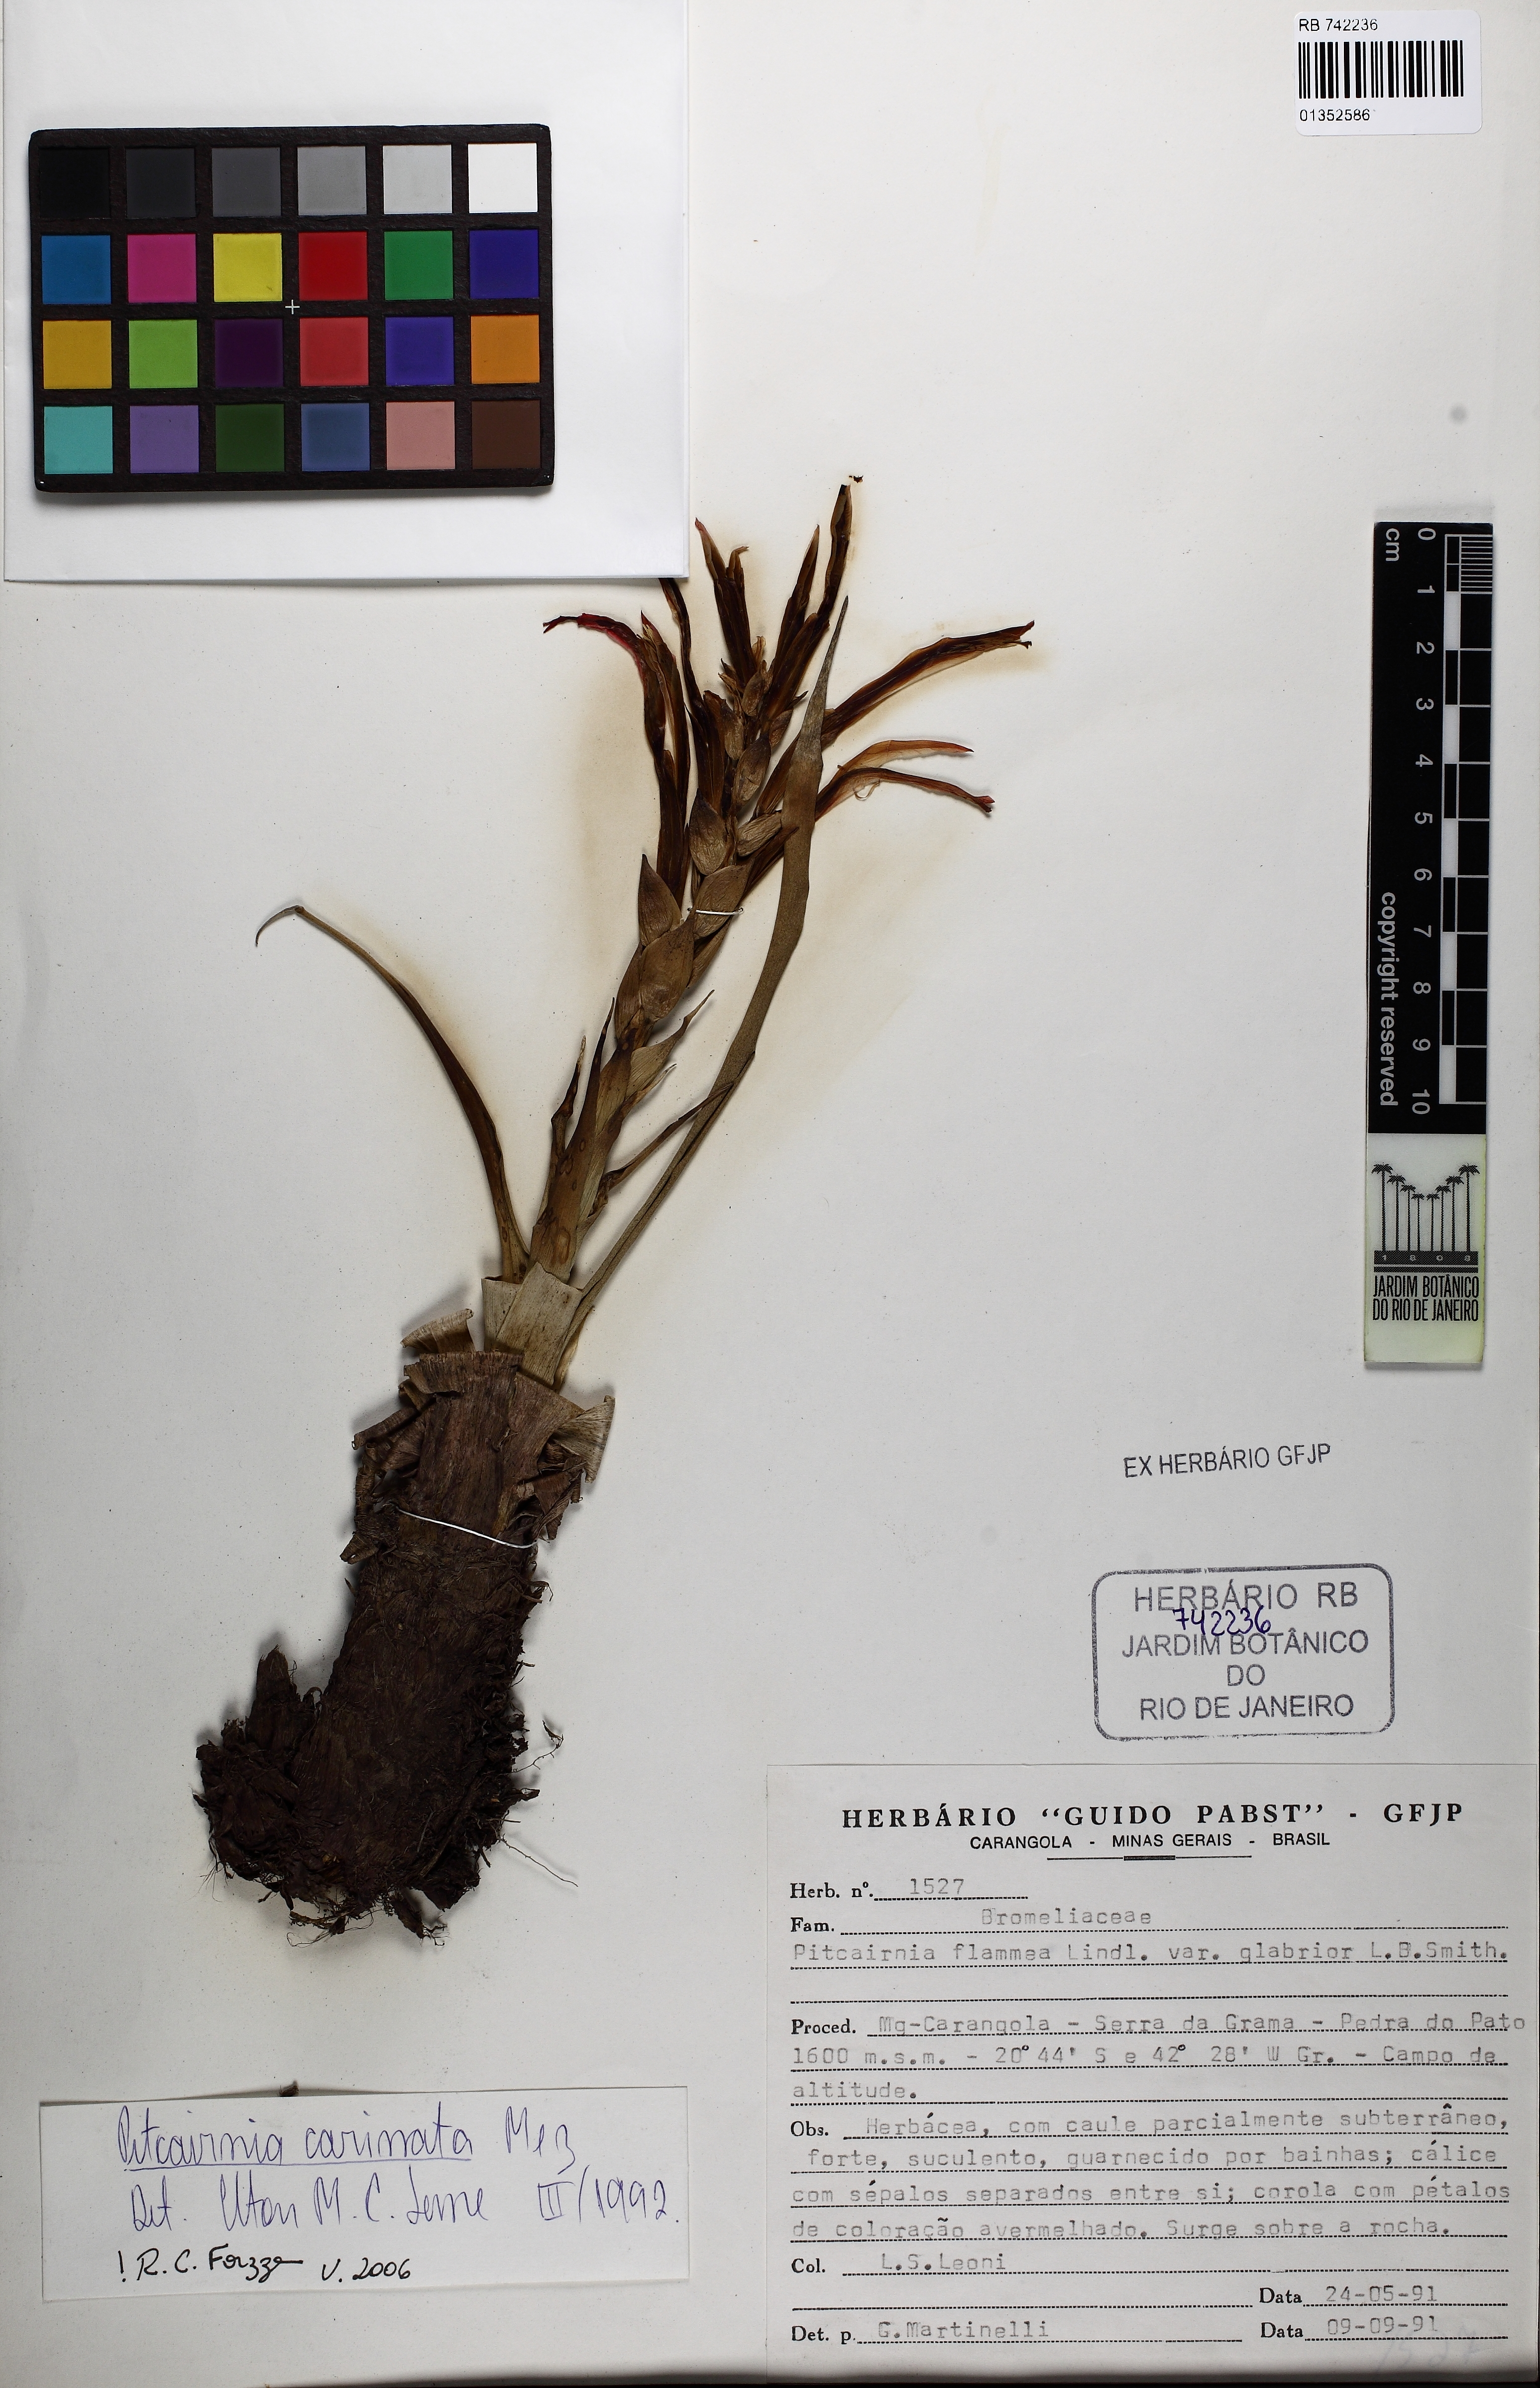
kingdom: Plantae
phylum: Tracheophyta
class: Liliopsida
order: Poales
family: Bromeliaceae
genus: Pitcairnia
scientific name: Pitcairnia carinata
